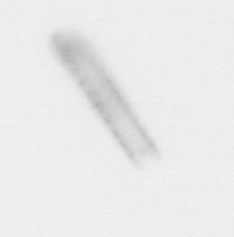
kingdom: Chromista
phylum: Ochrophyta
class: Bacillariophyceae
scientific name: Bacillariophyceae
